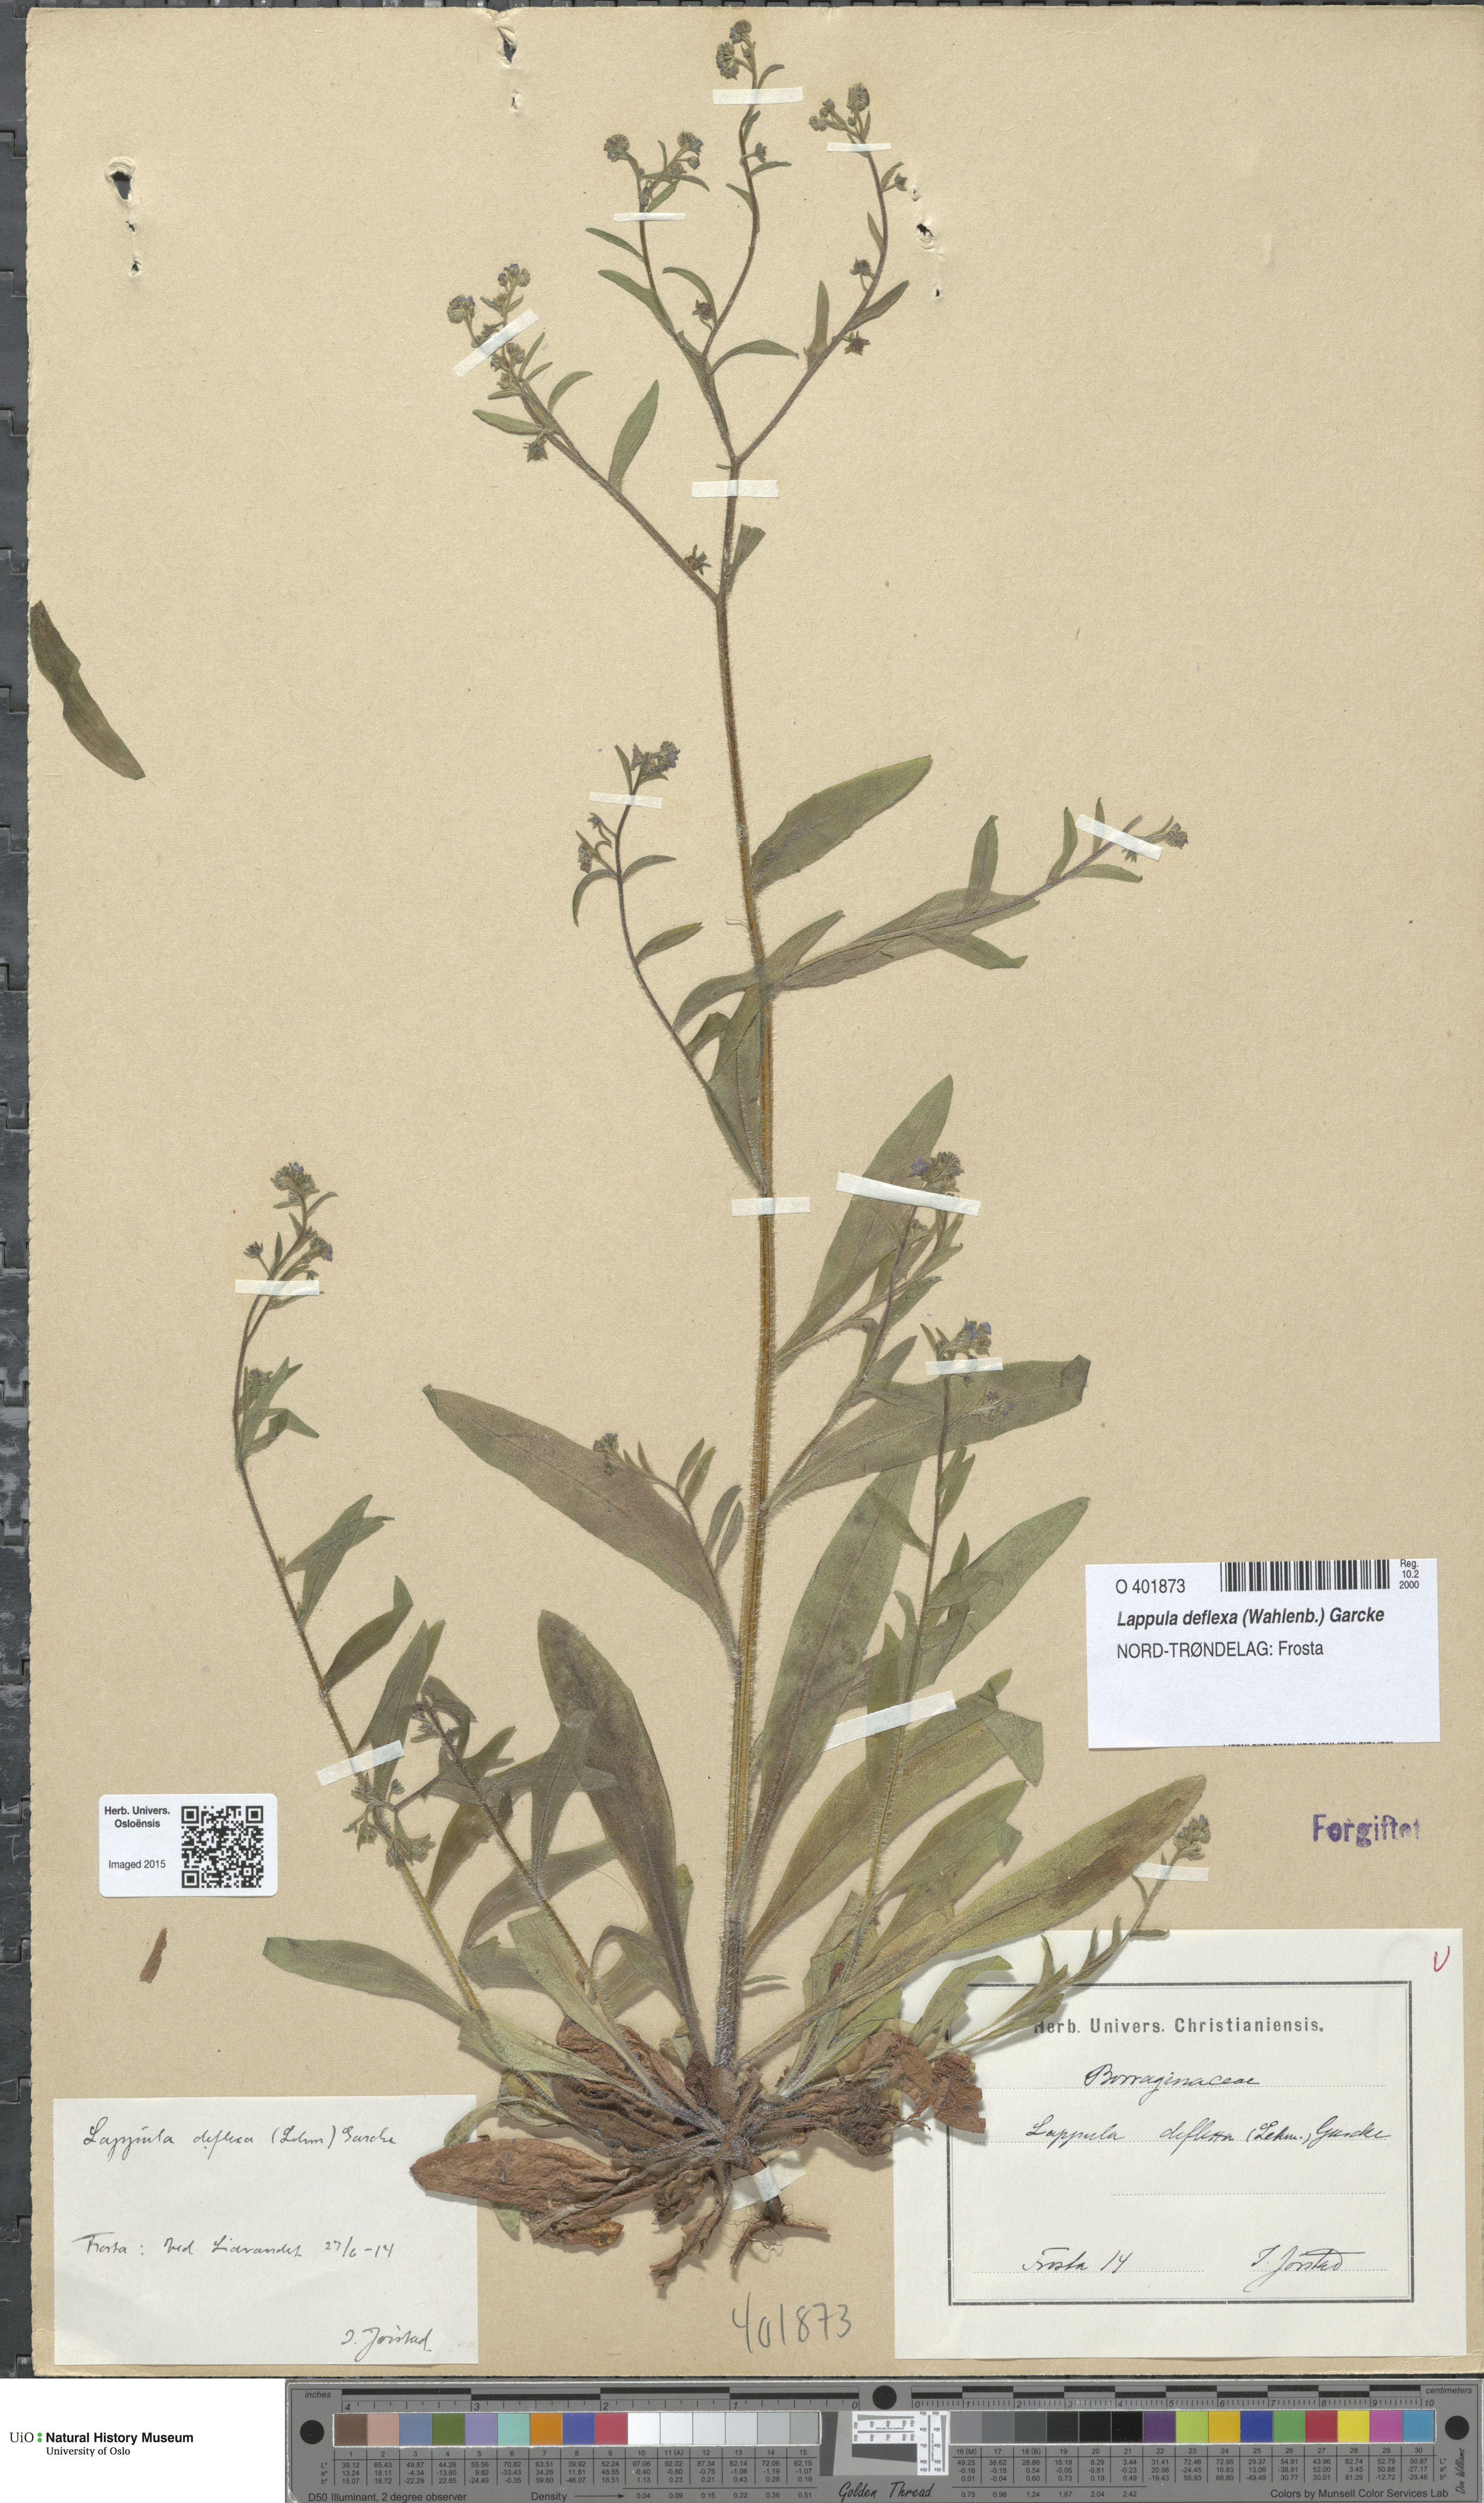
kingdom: Plantae
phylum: Tracheophyta
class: Magnoliopsida
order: Boraginales
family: Boraginaceae
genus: Hackelia
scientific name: Hackelia deflexa
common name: Nodding stickseed
